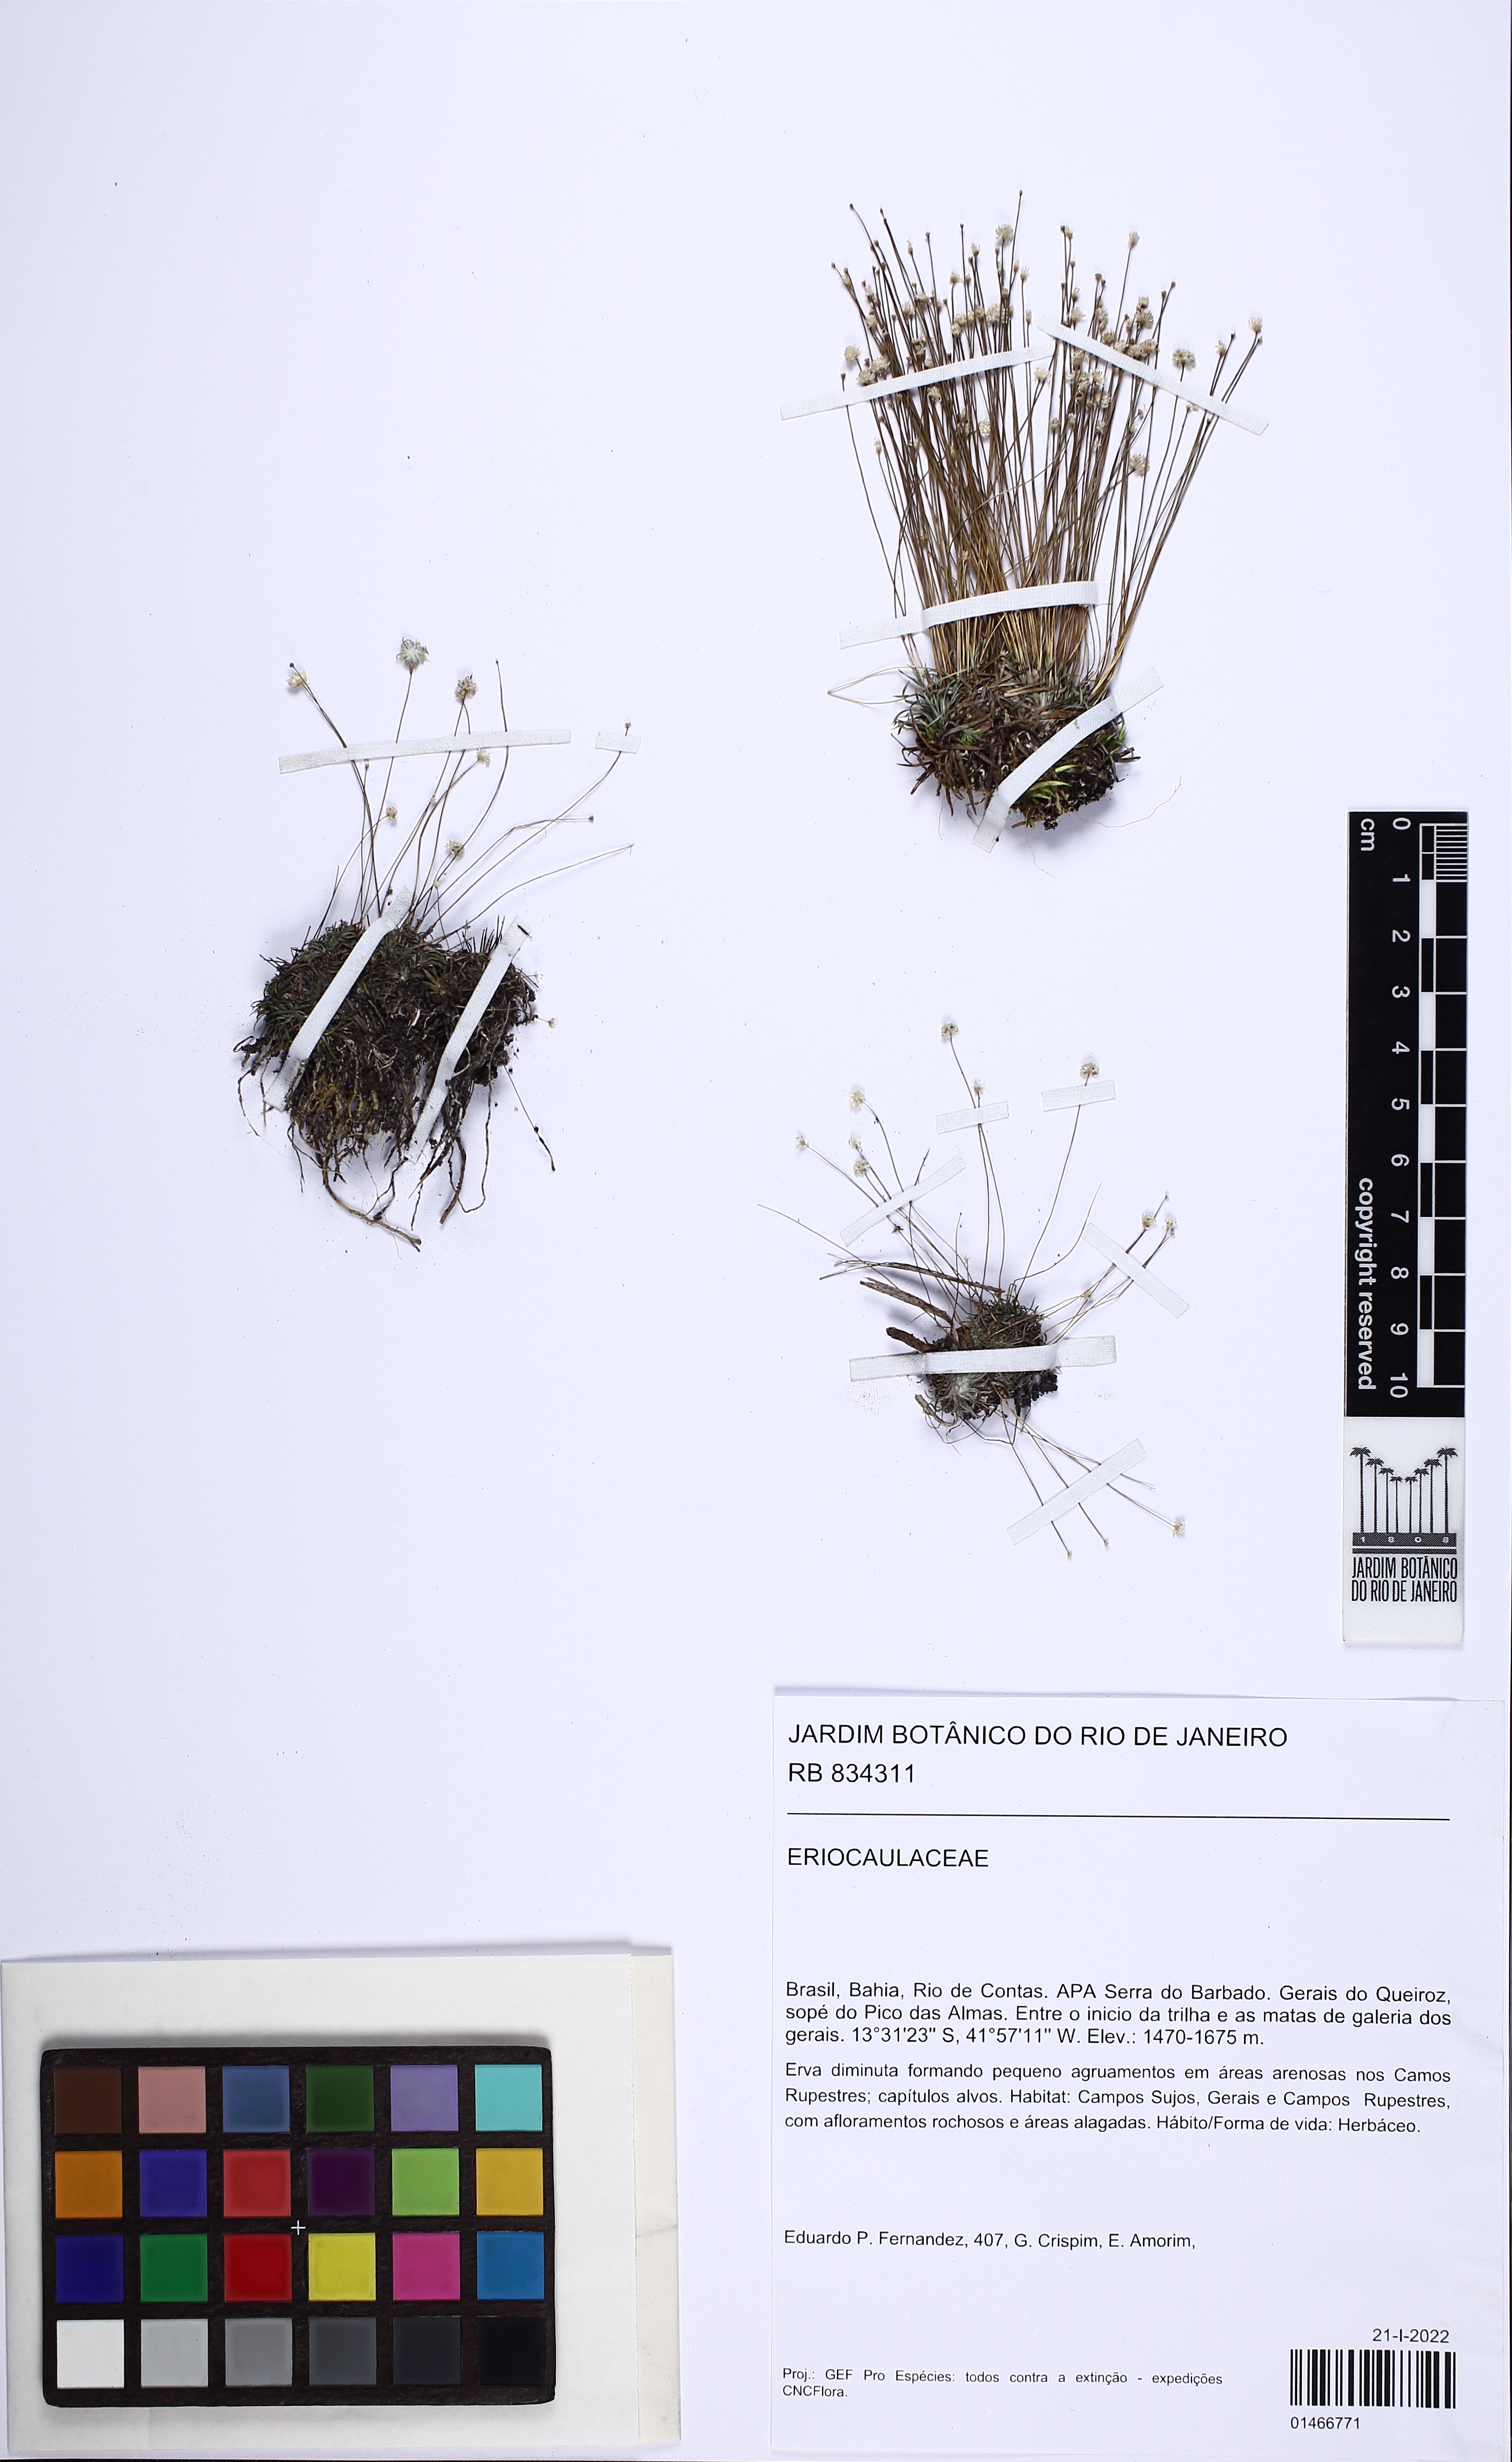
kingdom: Plantae
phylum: Tracheophyta
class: Liliopsida
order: Poales
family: Eriocaulaceae
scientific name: Eriocaulaceae
